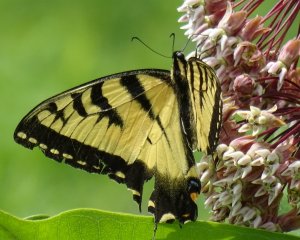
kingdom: Animalia
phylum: Arthropoda
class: Insecta
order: Lepidoptera
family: Papilionidae
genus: Pterourus
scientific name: Pterourus glaucus
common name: Eastern Tiger Swallowtail
